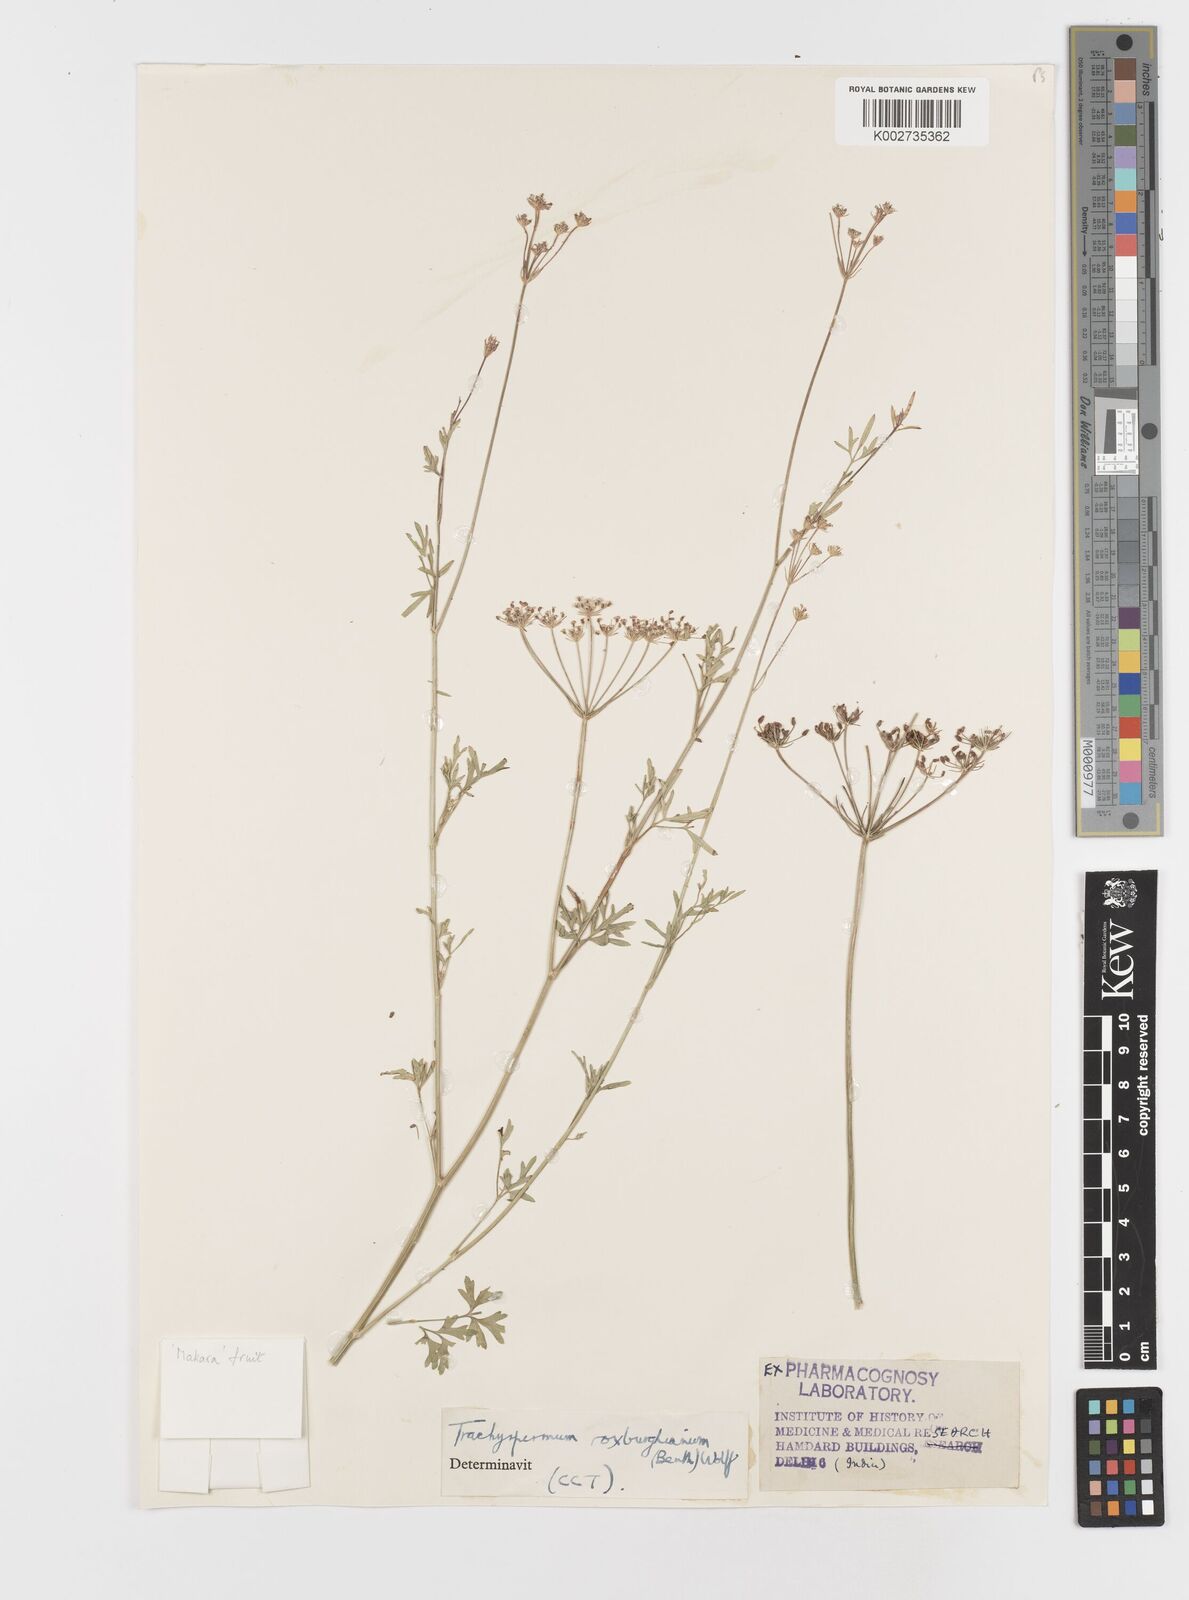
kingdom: Plantae
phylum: Tracheophyta
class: Magnoliopsida
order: Apiales
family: Apiaceae
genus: Psammogeton
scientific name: Psammogeton involucratum
